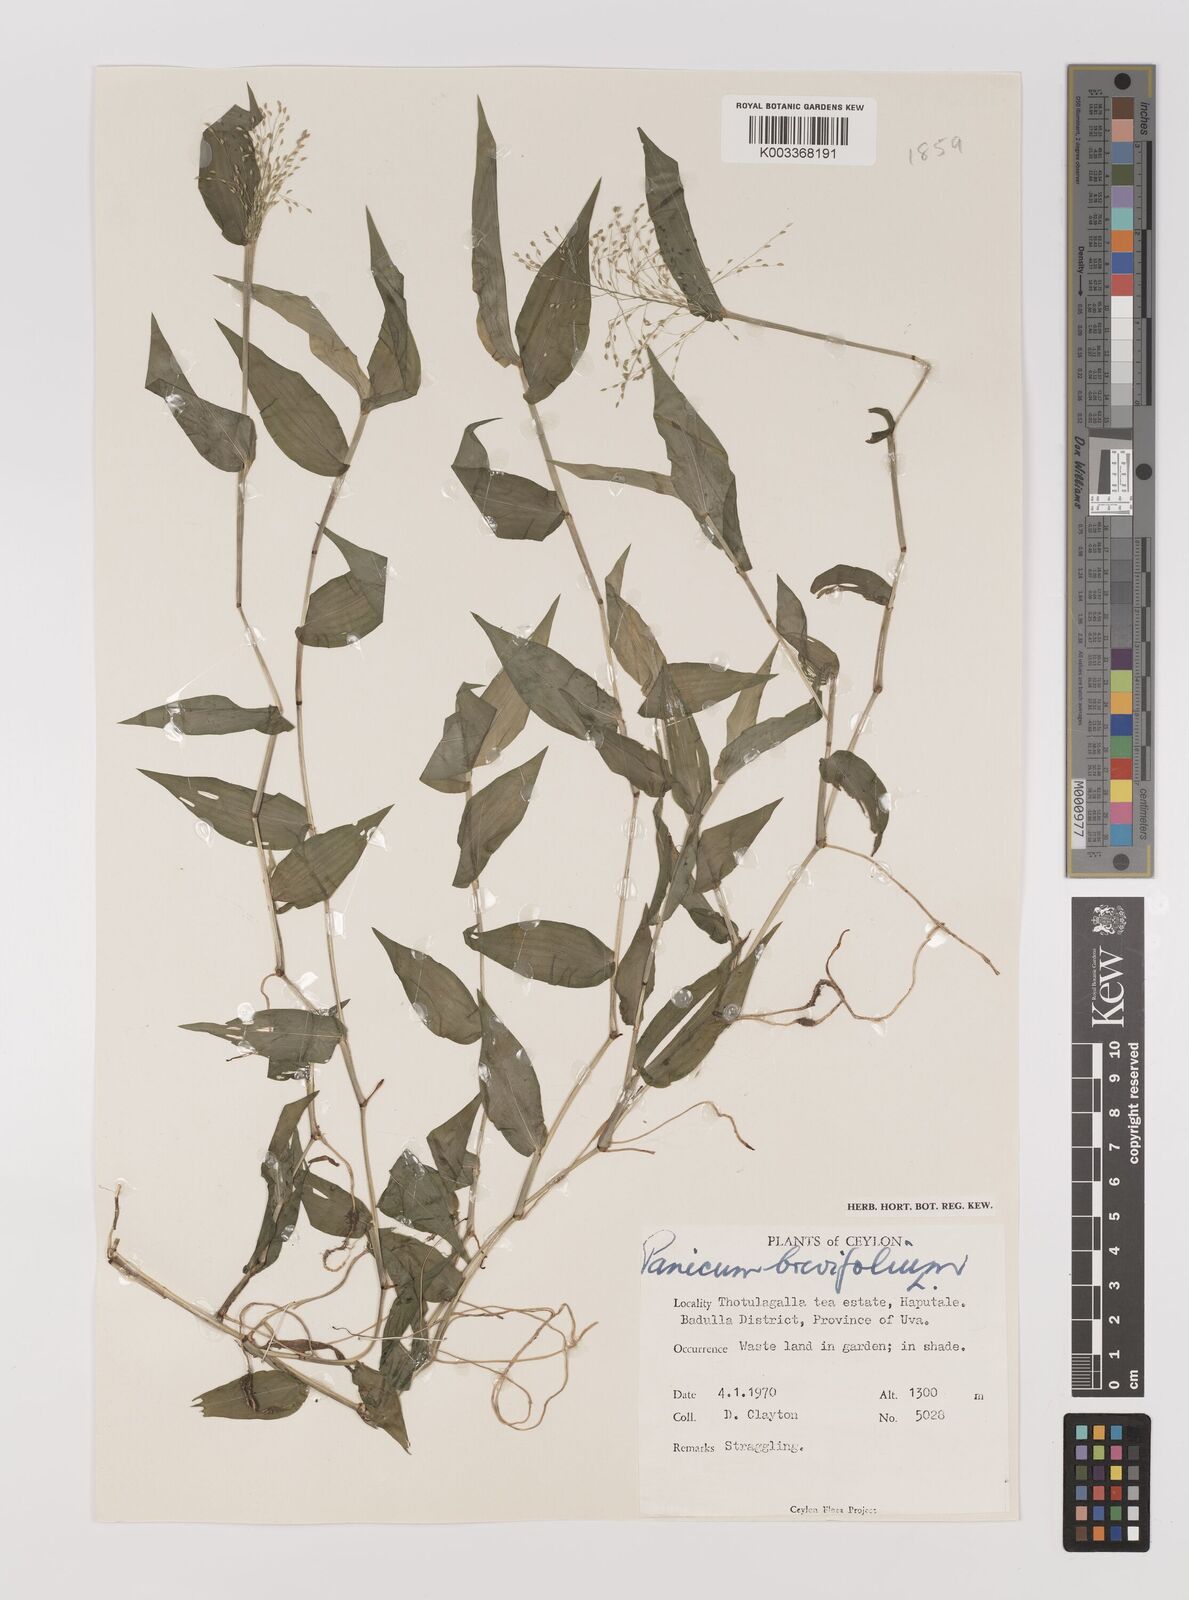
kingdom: Plantae
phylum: Tracheophyta
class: Liliopsida
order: Poales
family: Poaceae
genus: Panicum
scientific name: Panicum brevifolium
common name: Shortleaf panic grass
